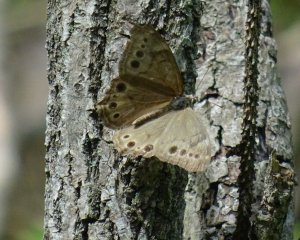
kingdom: Animalia
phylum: Arthropoda
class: Insecta
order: Lepidoptera
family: Nymphalidae
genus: Lethe
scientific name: Lethe anthedon
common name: Northern Pearly-Eye
